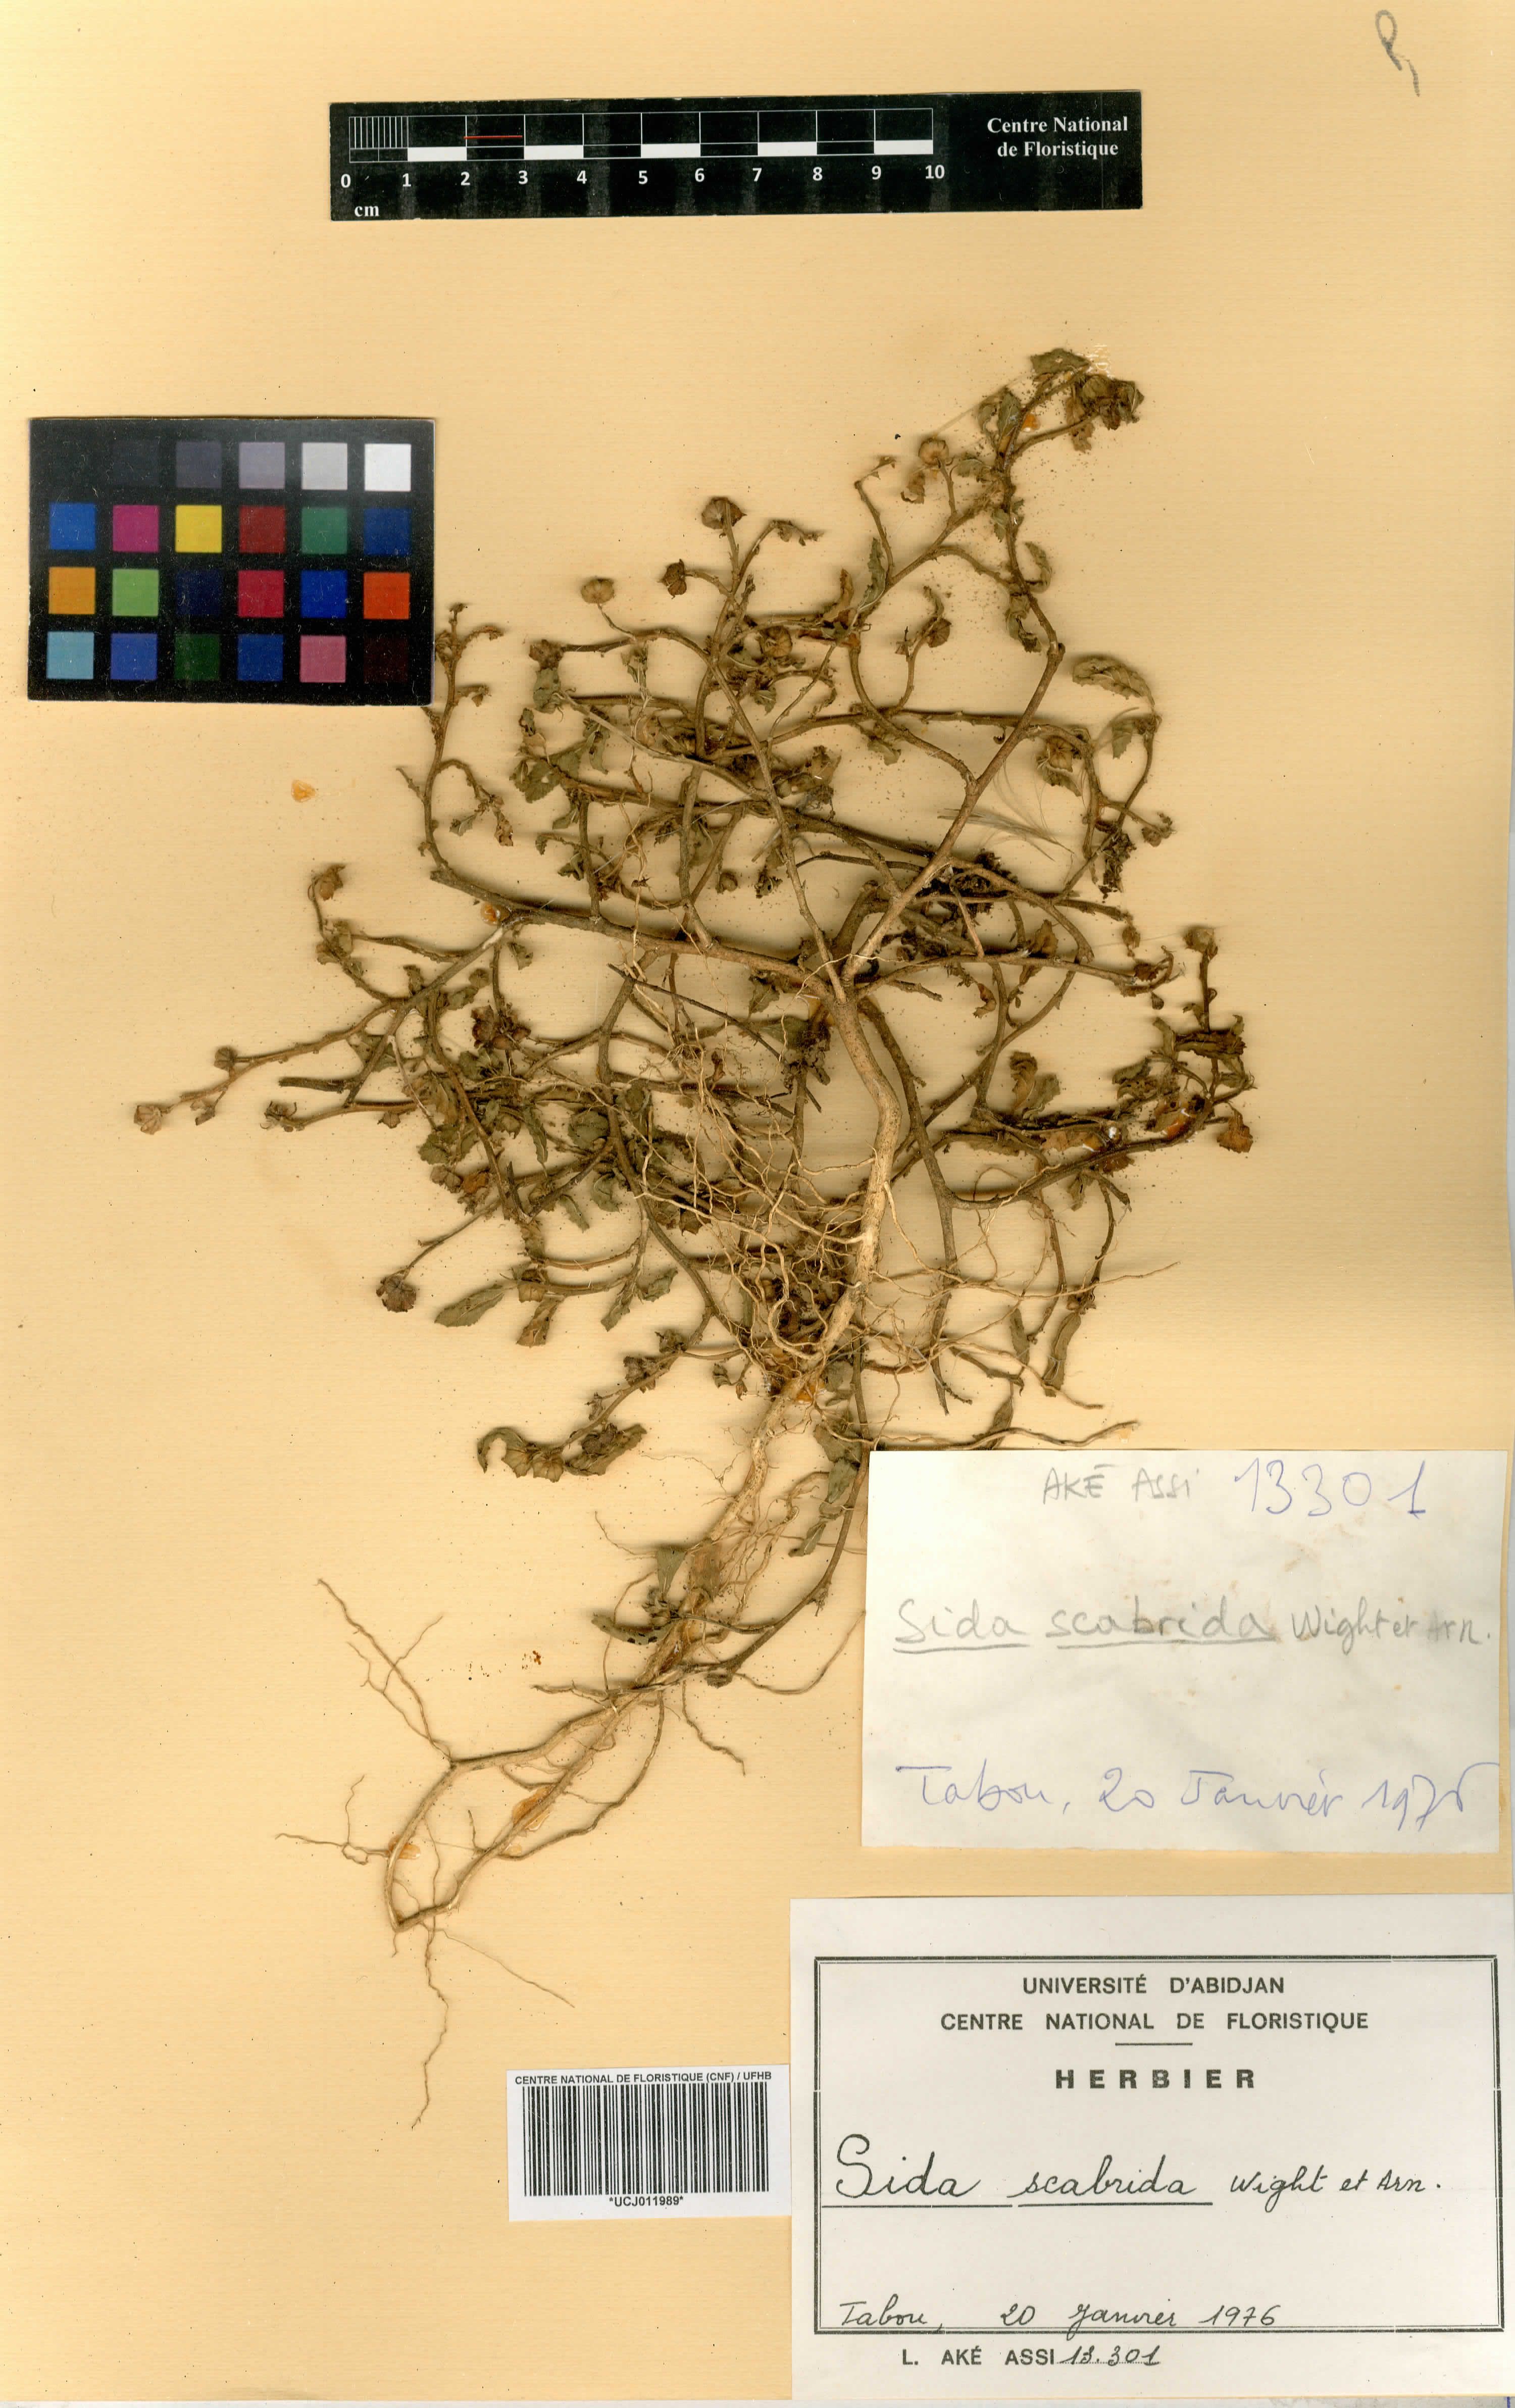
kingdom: Plantae
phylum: Tracheophyta
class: Magnoliopsida
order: Malvales
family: Malvaceae
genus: Sida
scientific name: Sida rhombifolia
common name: Queensland-hemp
